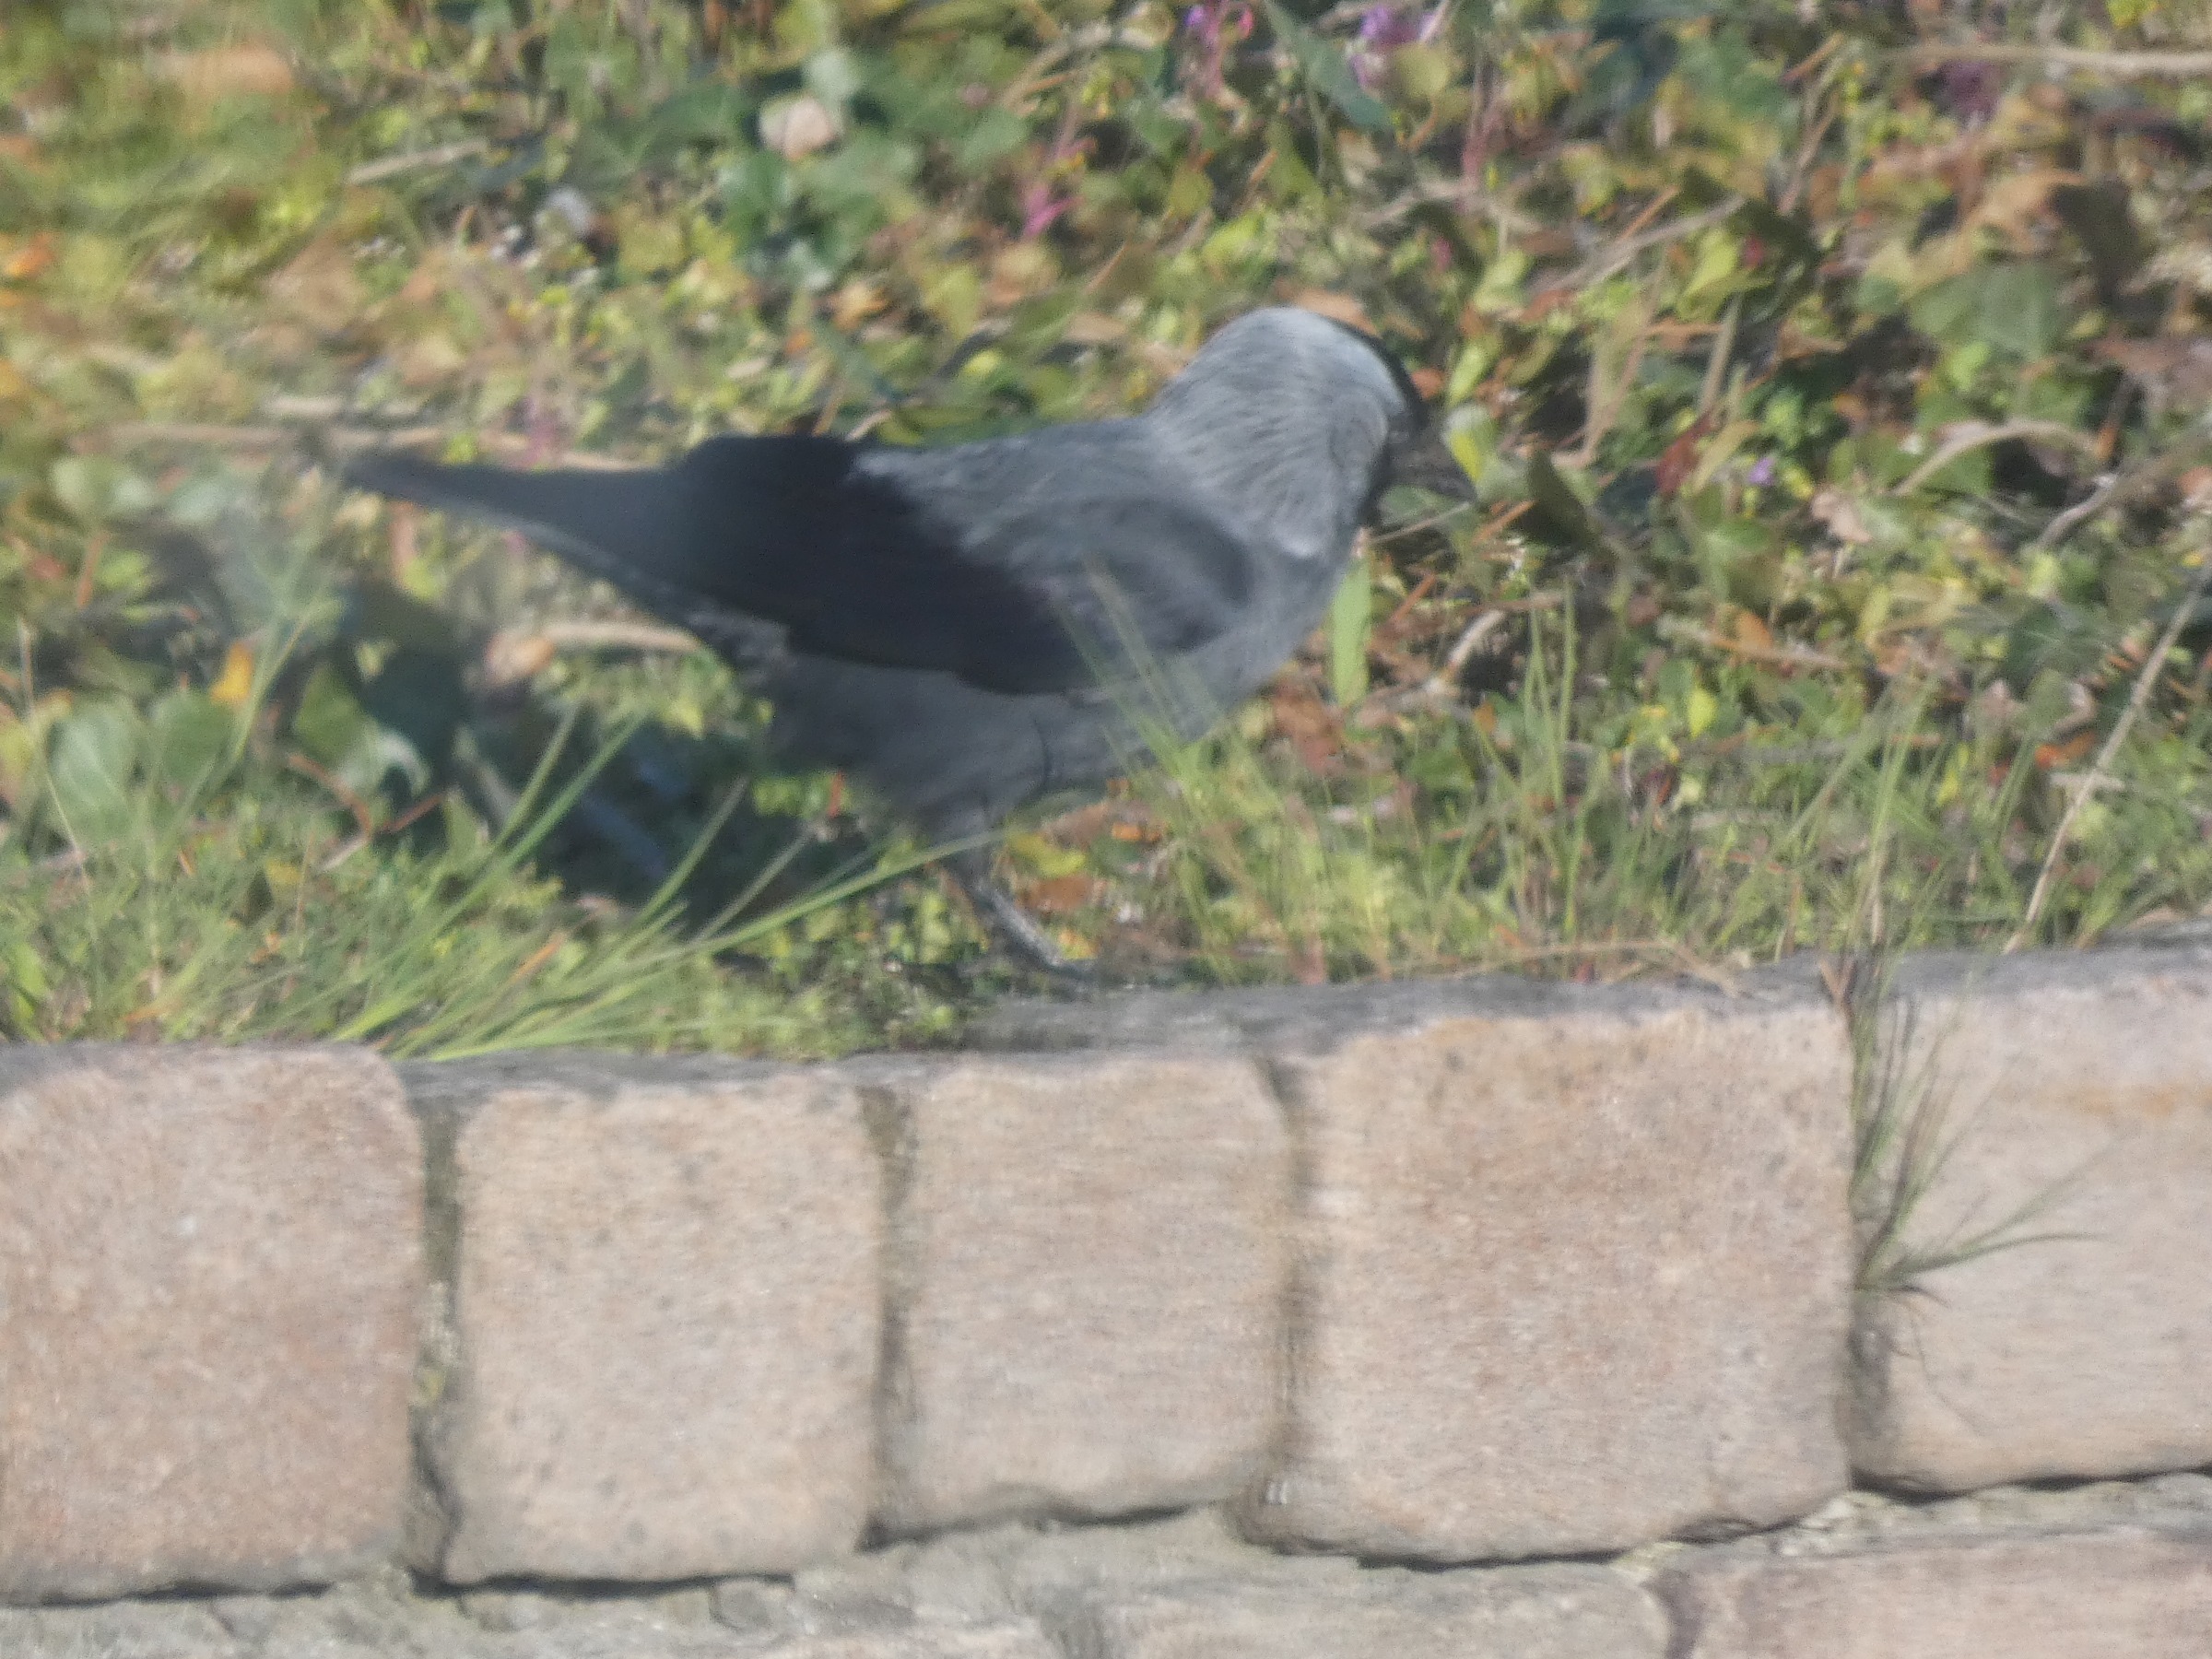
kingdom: Animalia
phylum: Chordata
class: Aves
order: Passeriformes
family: Corvidae
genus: Coloeus
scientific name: Coloeus monedula
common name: Allike
